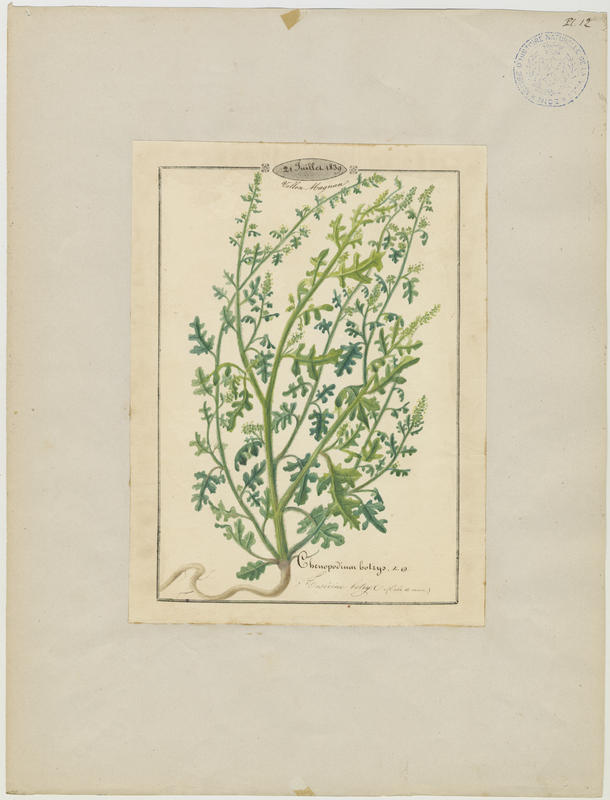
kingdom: Plantae
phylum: Tracheophyta
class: Magnoliopsida
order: Caryophyllales
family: Amaranthaceae
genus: Dysphania
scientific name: Dysphania botrys
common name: Feather-geranium
